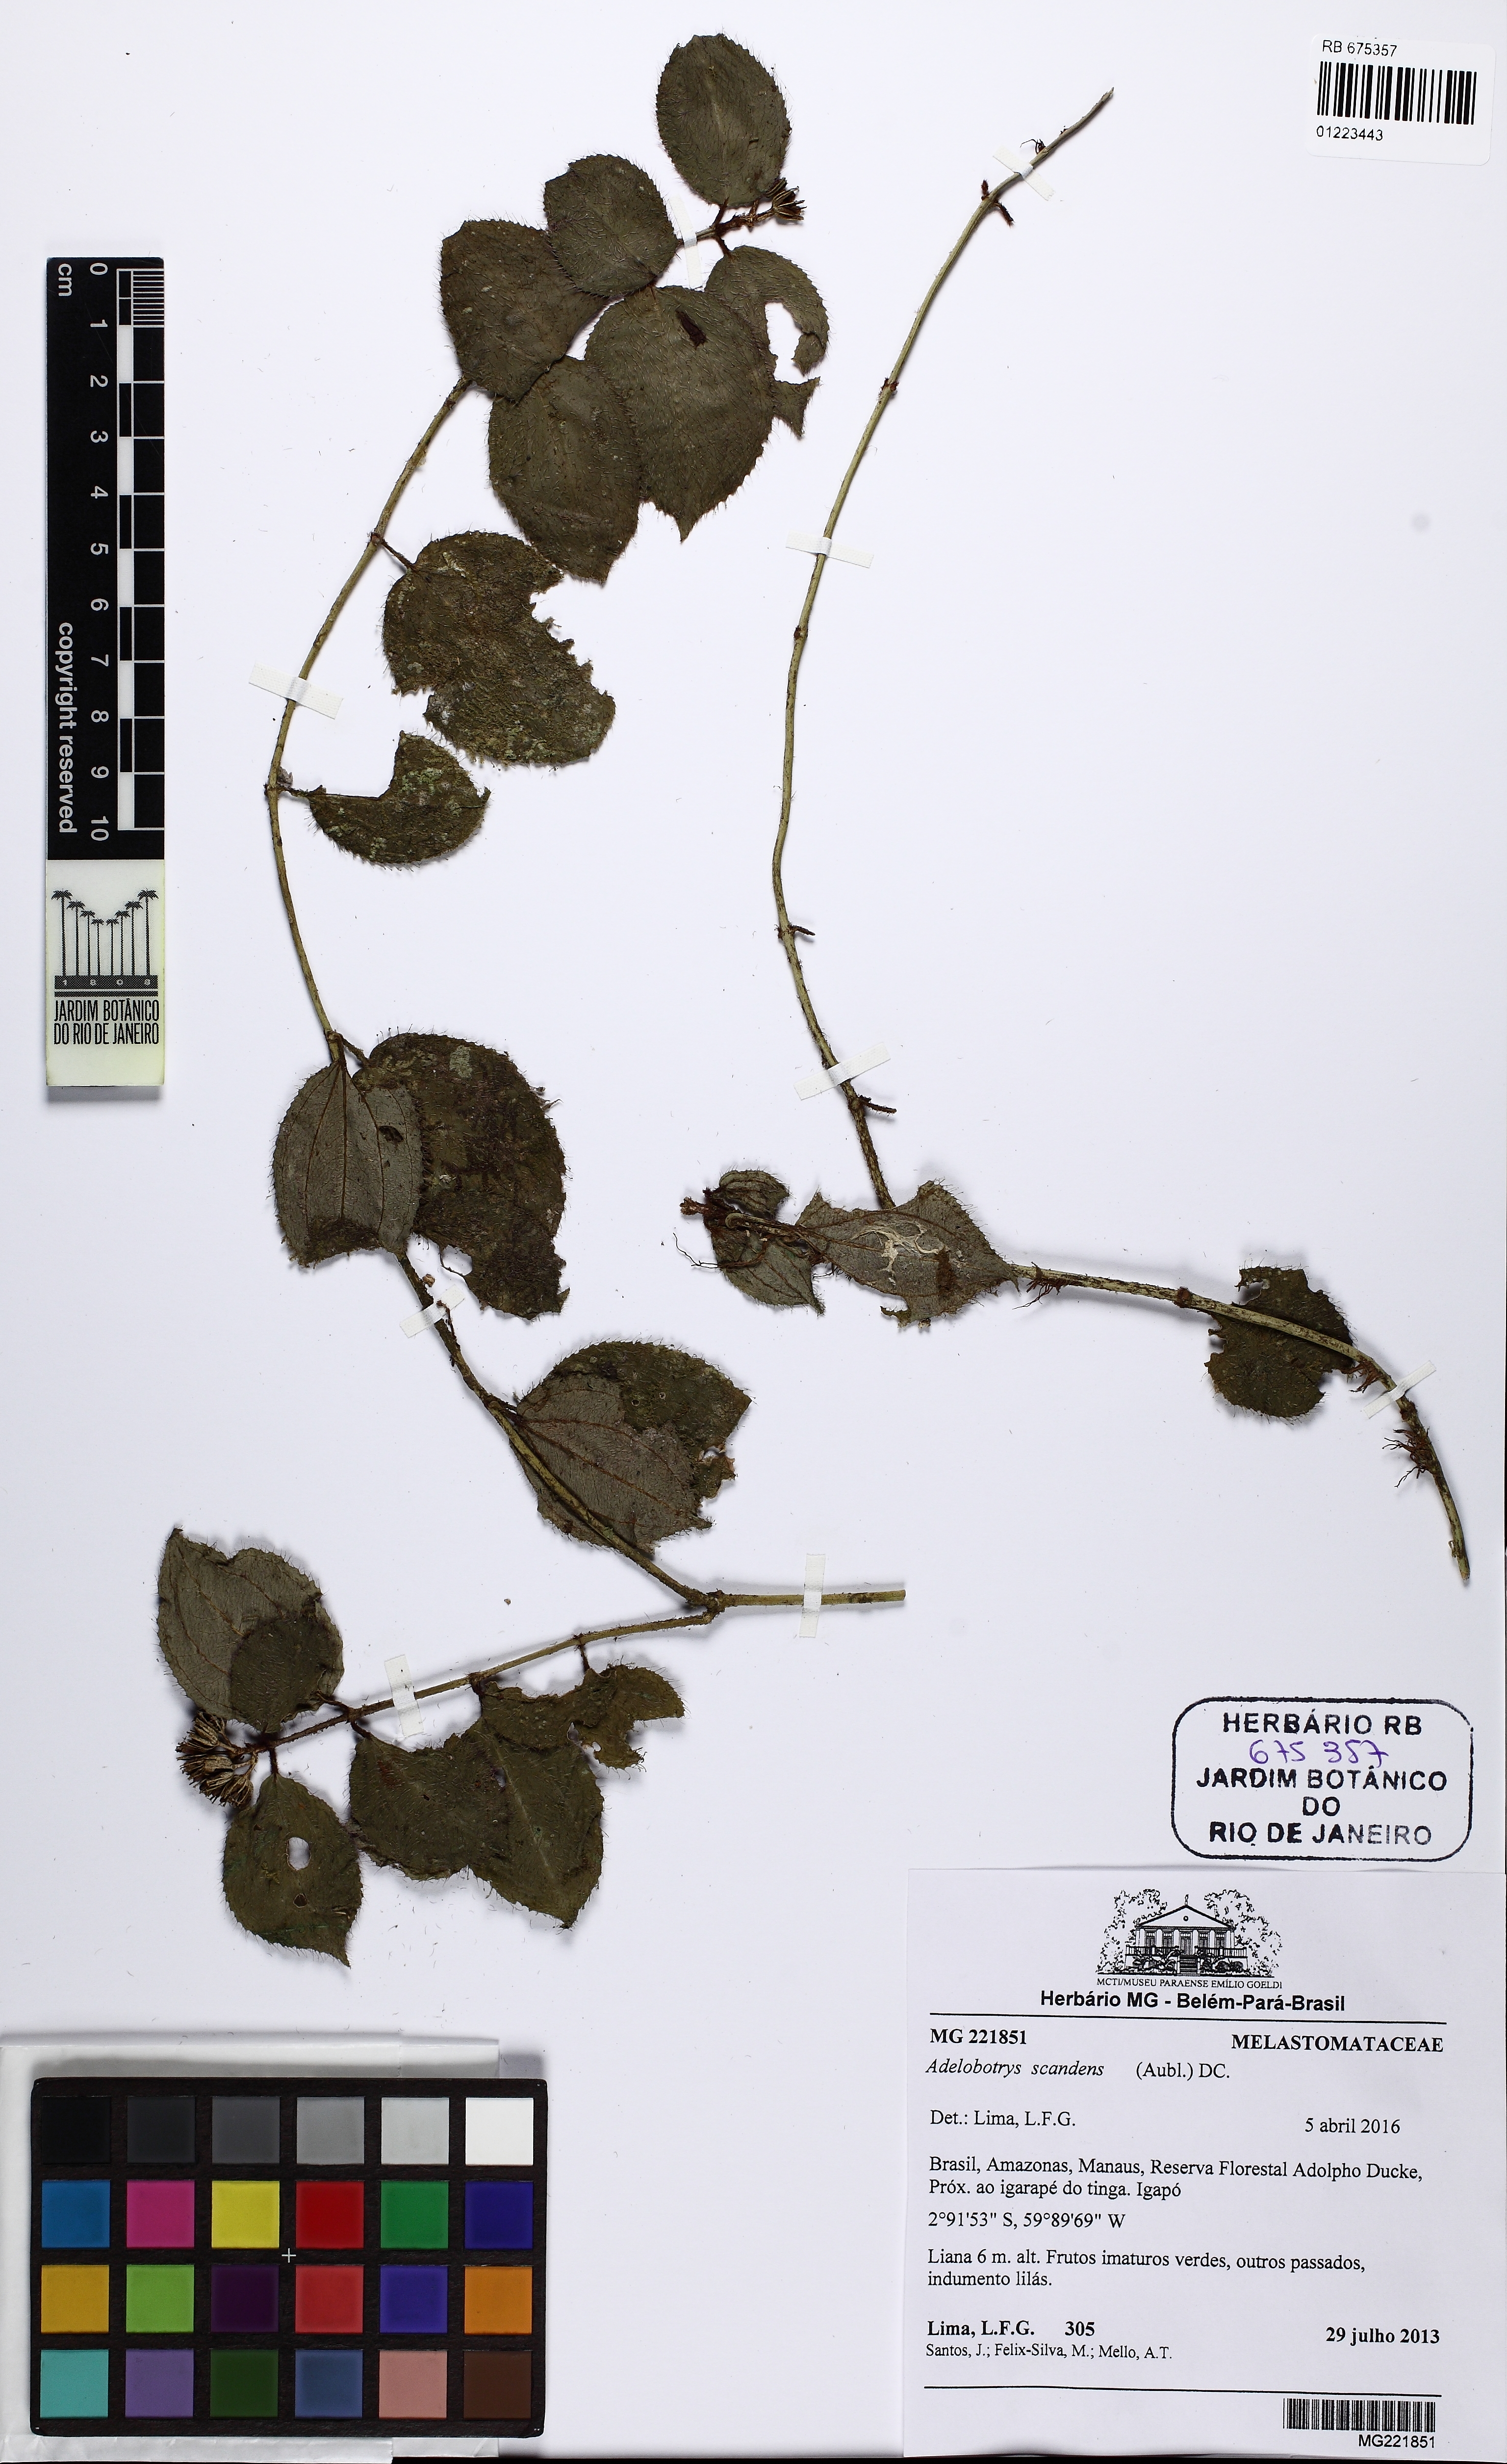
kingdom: Plantae
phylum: Tracheophyta
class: Magnoliopsida
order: Myrtales
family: Melastomataceae
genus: Adelobotrys
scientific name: Adelobotrys scandens
